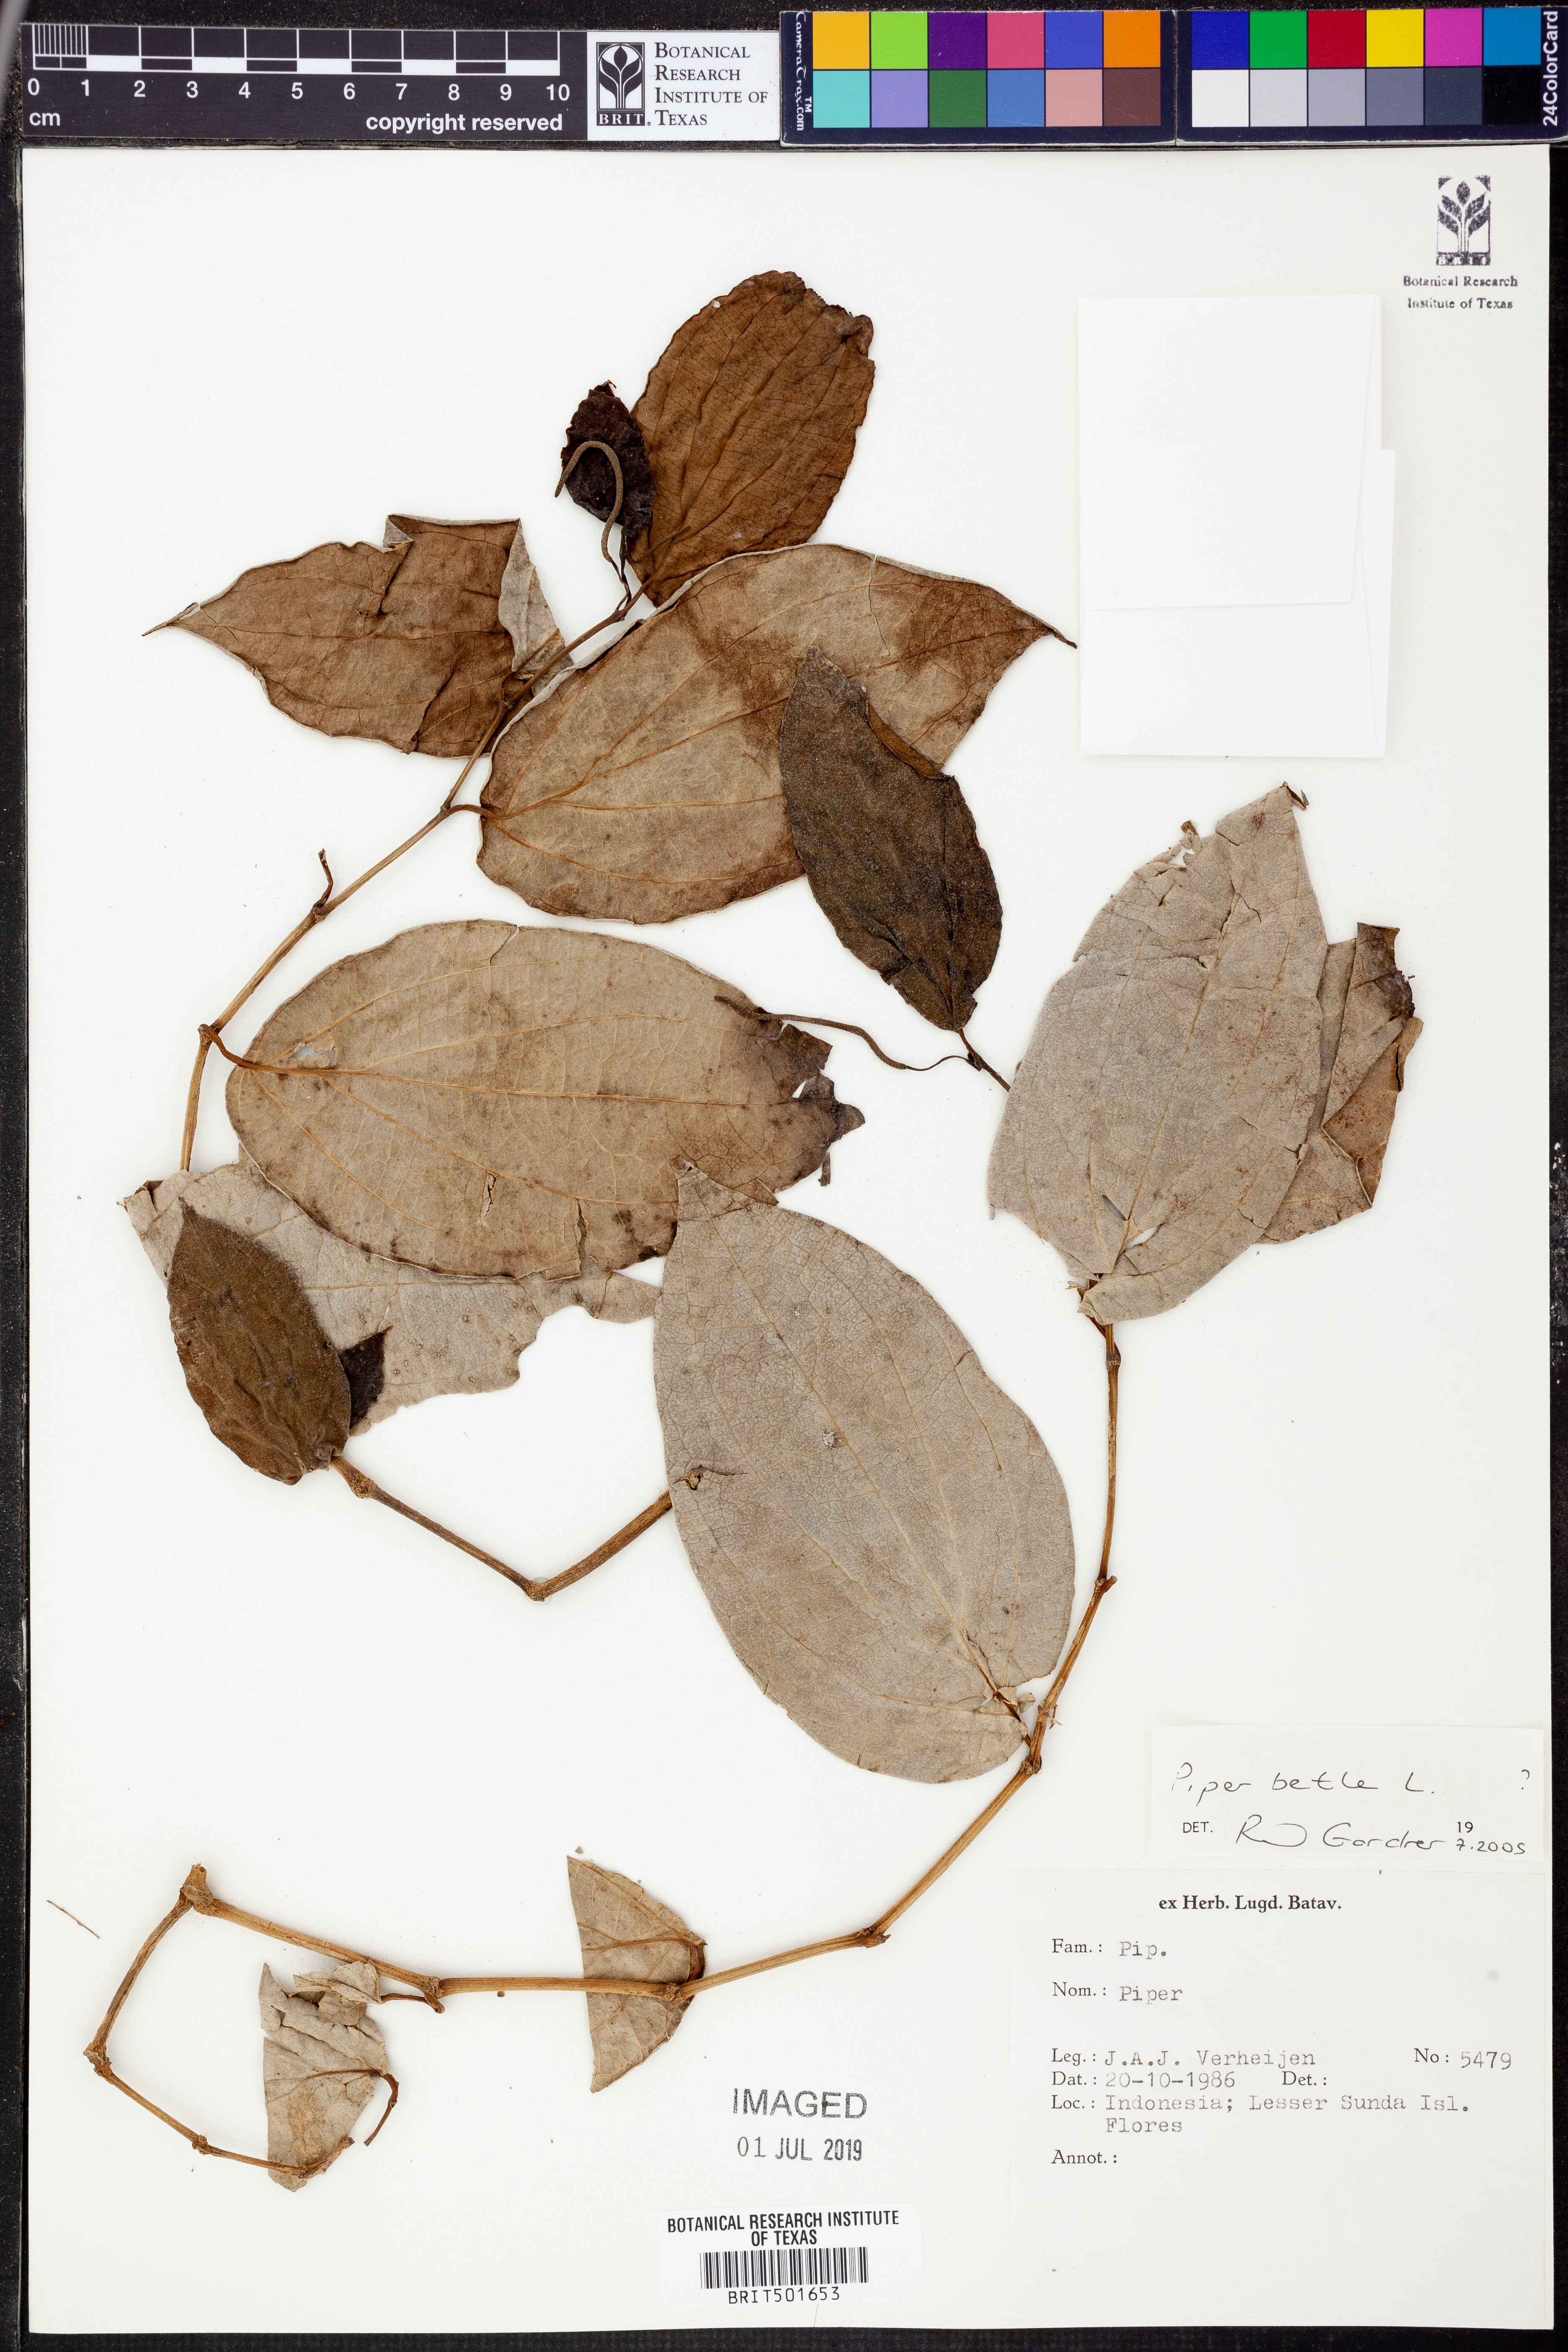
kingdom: Plantae
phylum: Tracheophyta
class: Magnoliopsida
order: Piperales
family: Piperaceae
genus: Piper
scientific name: Piper betle
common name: Betel pepper
